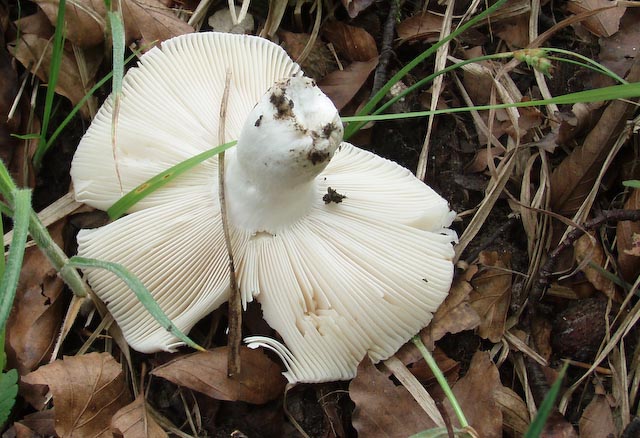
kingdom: Fungi
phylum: Basidiomycota
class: Agaricomycetes
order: Russulales
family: Russulaceae
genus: Russula
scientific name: Russula faustiana
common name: olivengrå skørhat
